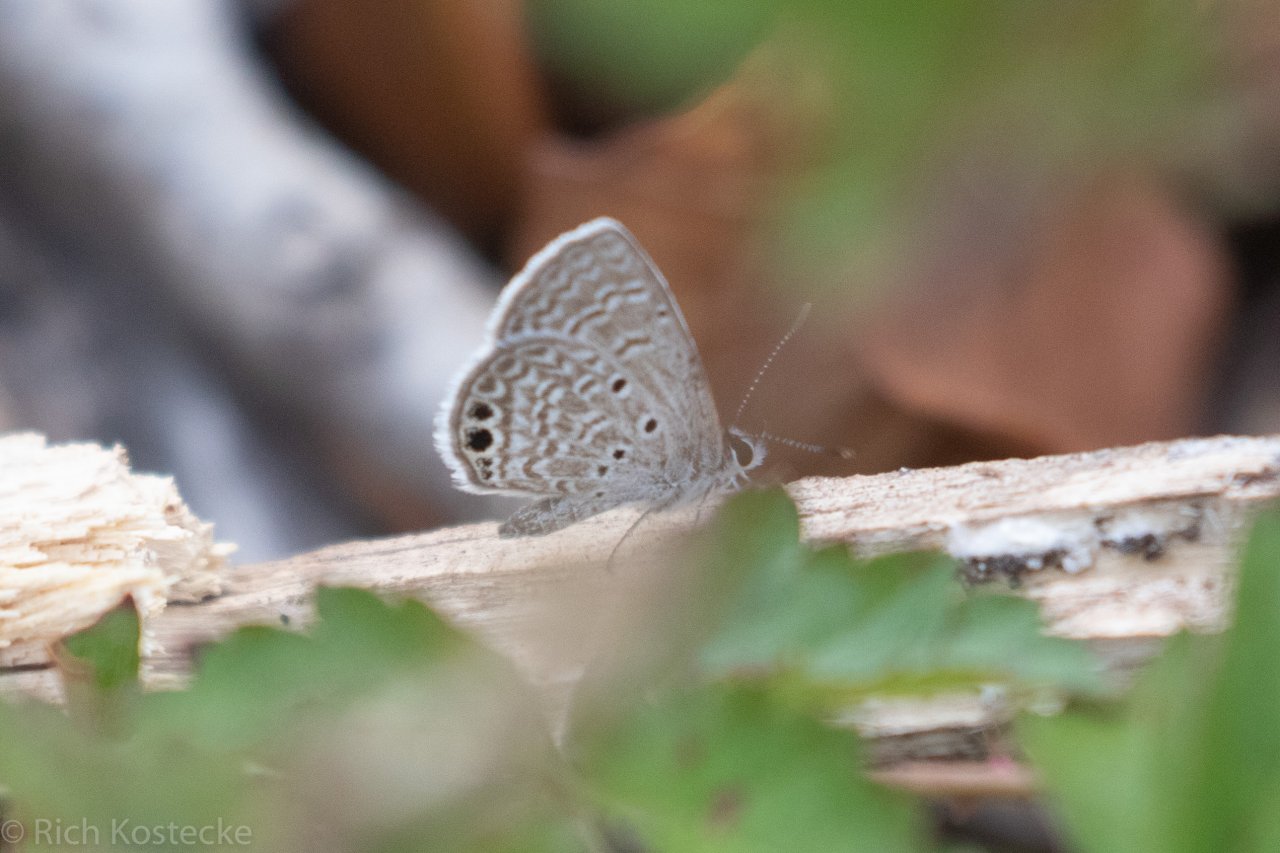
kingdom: Animalia
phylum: Arthropoda
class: Insecta
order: Lepidoptera
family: Lycaenidae
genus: Hemiargus
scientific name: Hemiargus ceraunus
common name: Ceraunus Blue
